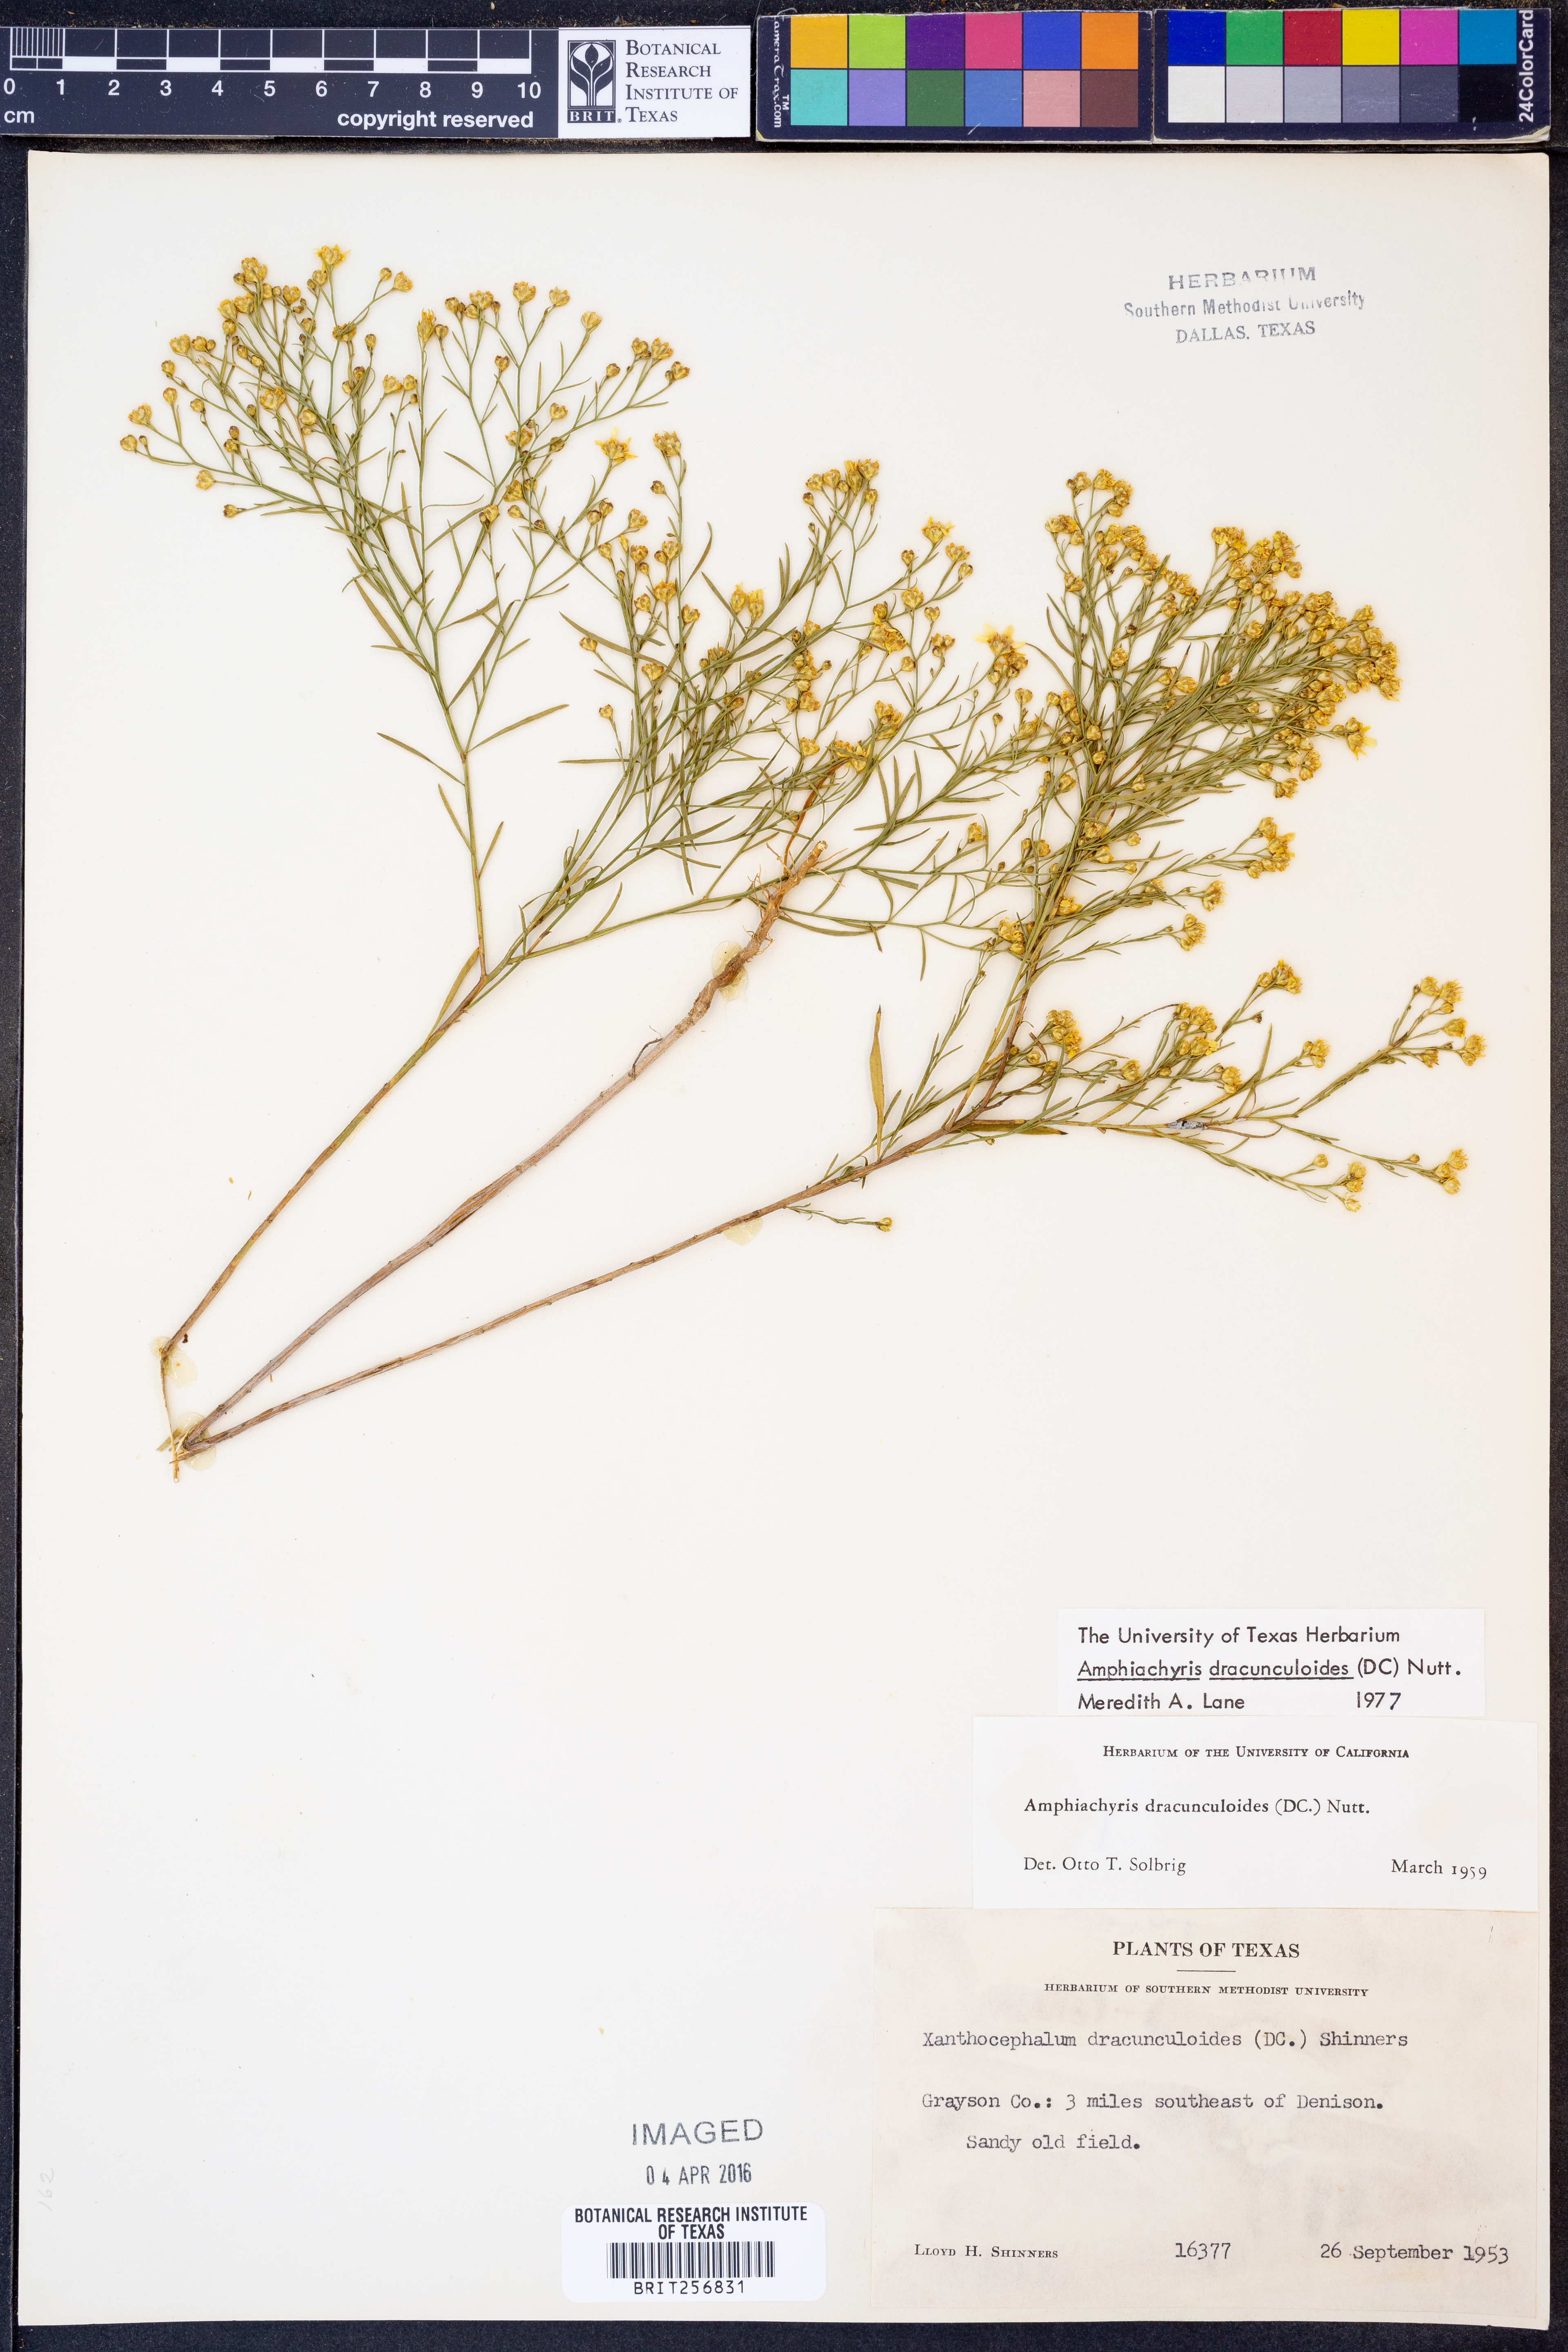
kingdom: Plantae
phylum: Tracheophyta
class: Magnoliopsida
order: Asterales
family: Asteraceae
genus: Amphiachyris
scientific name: Amphiachyris dracunculoides
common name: Broomweed
